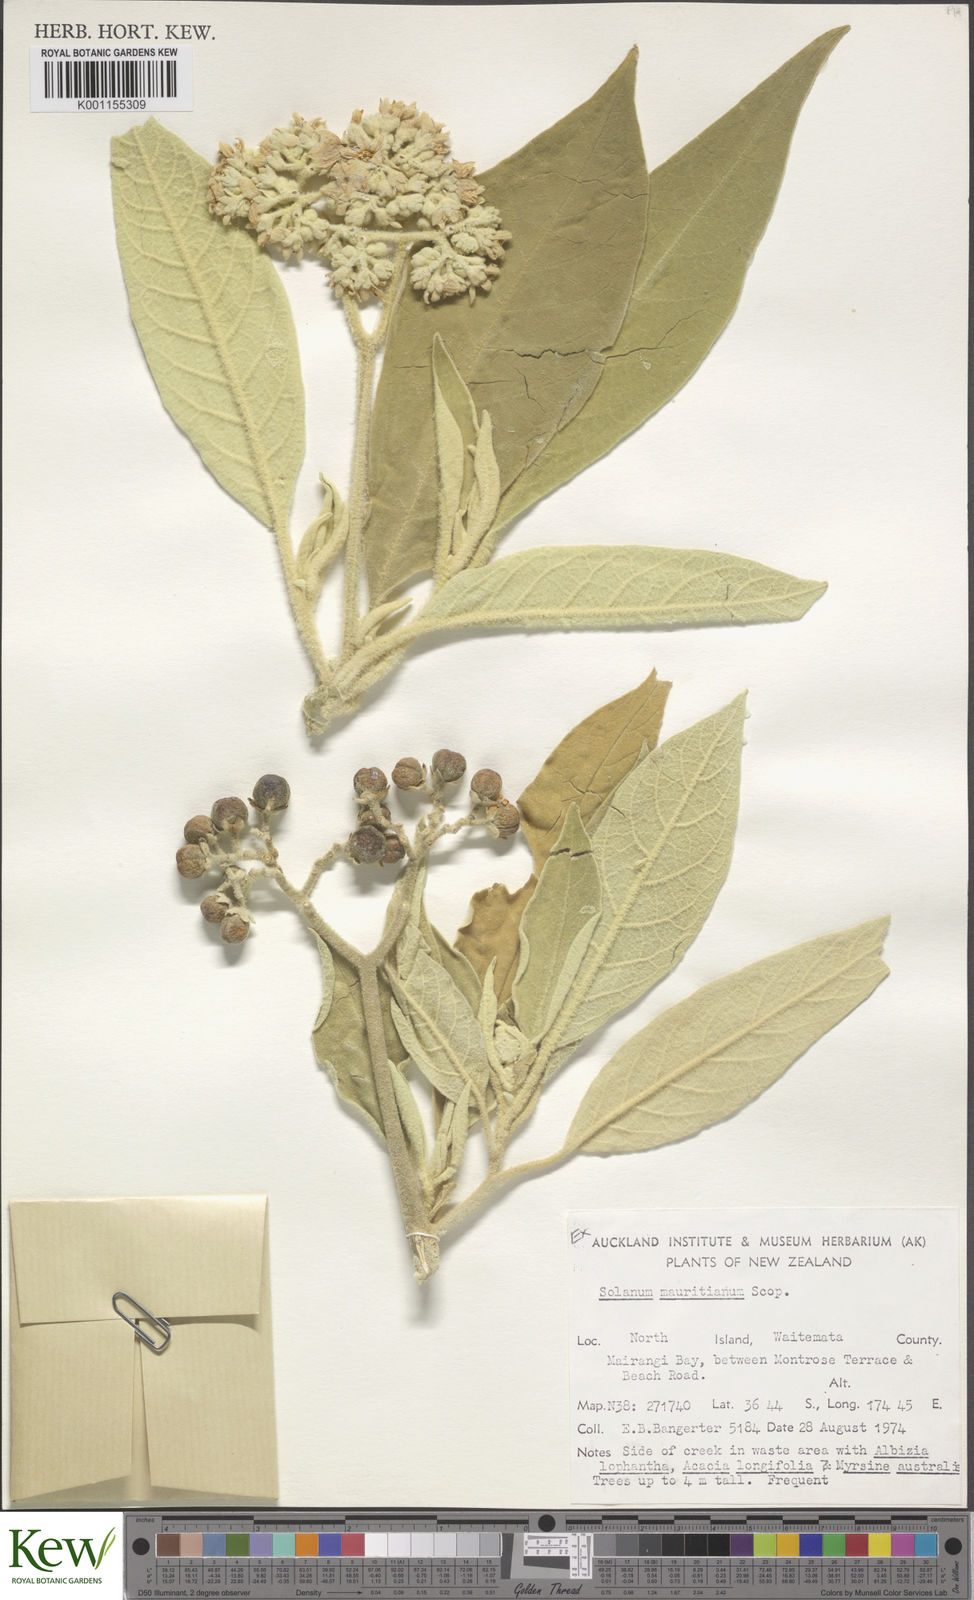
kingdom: Plantae
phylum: Tracheophyta
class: Magnoliopsida
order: Solanales
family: Solanaceae
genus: Solanum
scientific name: Solanum mauritianum
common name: Earleaf nightshade
